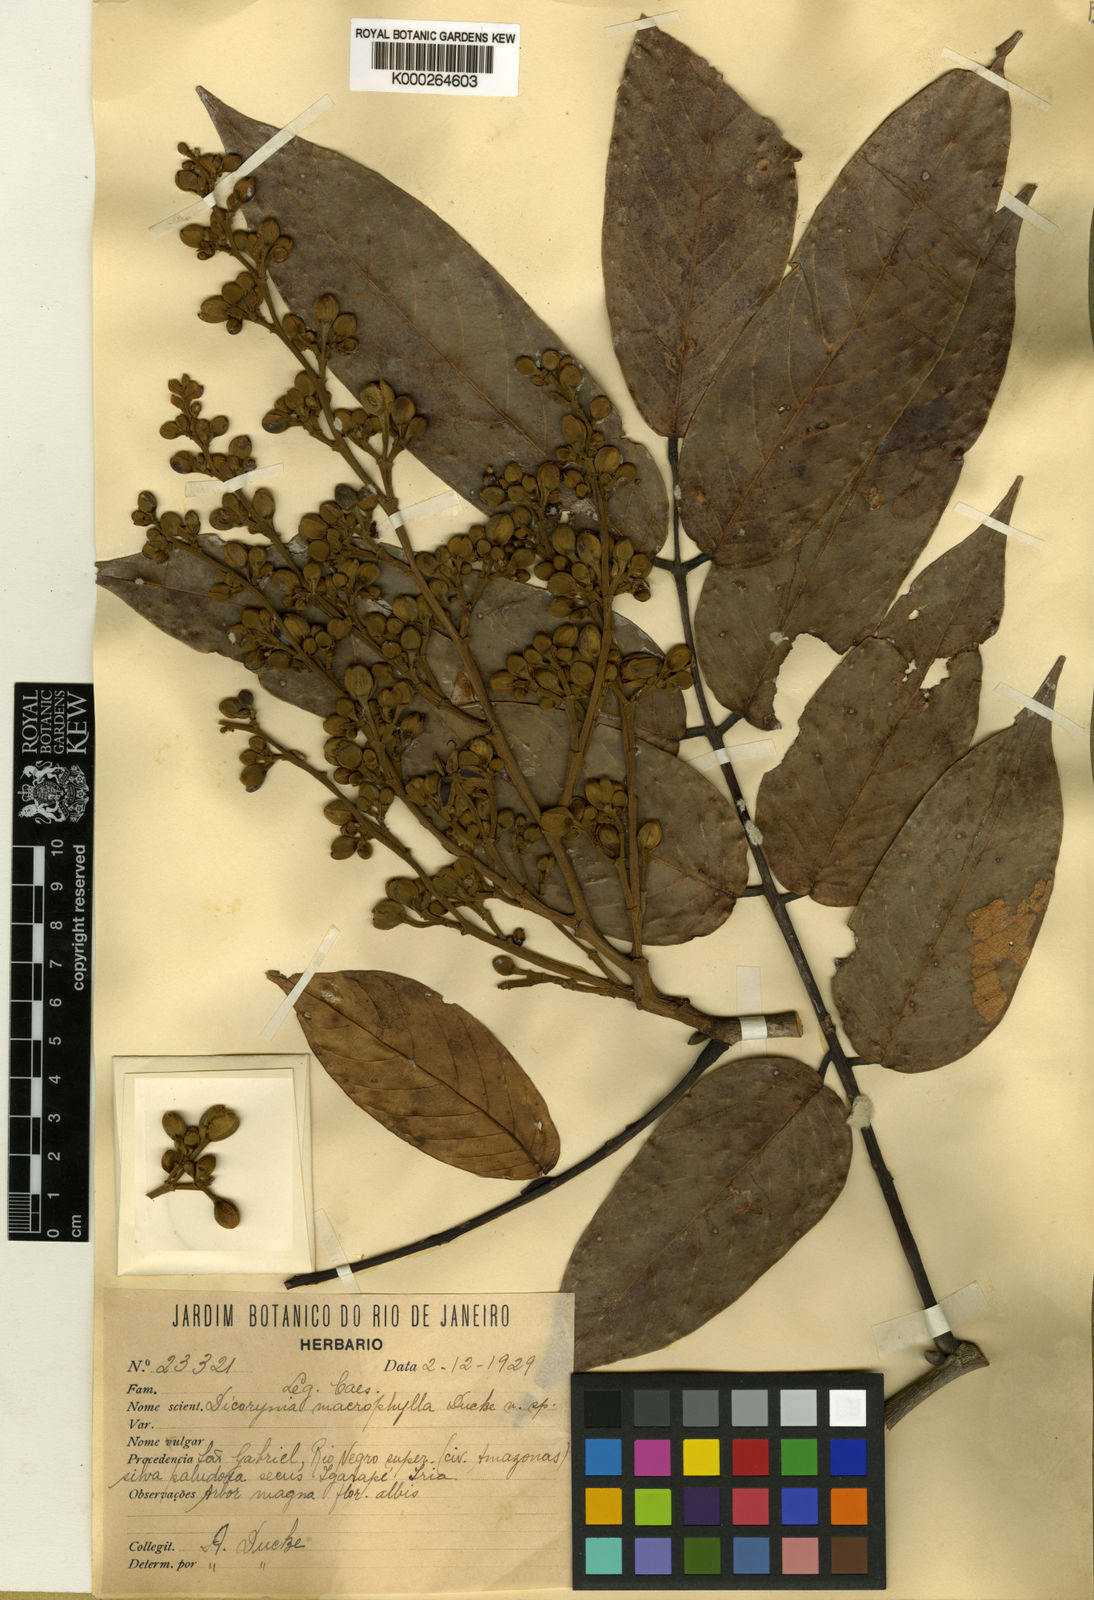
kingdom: Plantae
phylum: Tracheophyta
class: Magnoliopsida
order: Fabales
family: Fabaceae
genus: Dicorynia
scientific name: Dicorynia paraensis
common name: Angelique
